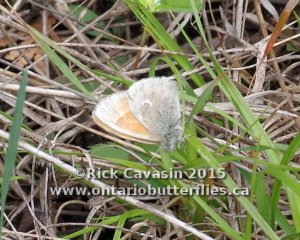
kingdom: Animalia
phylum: Arthropoda
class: Insecta
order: Lepidoptera
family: Nymphalidae
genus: Coenonympha
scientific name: Coenonympha tullia
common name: Large Heath
